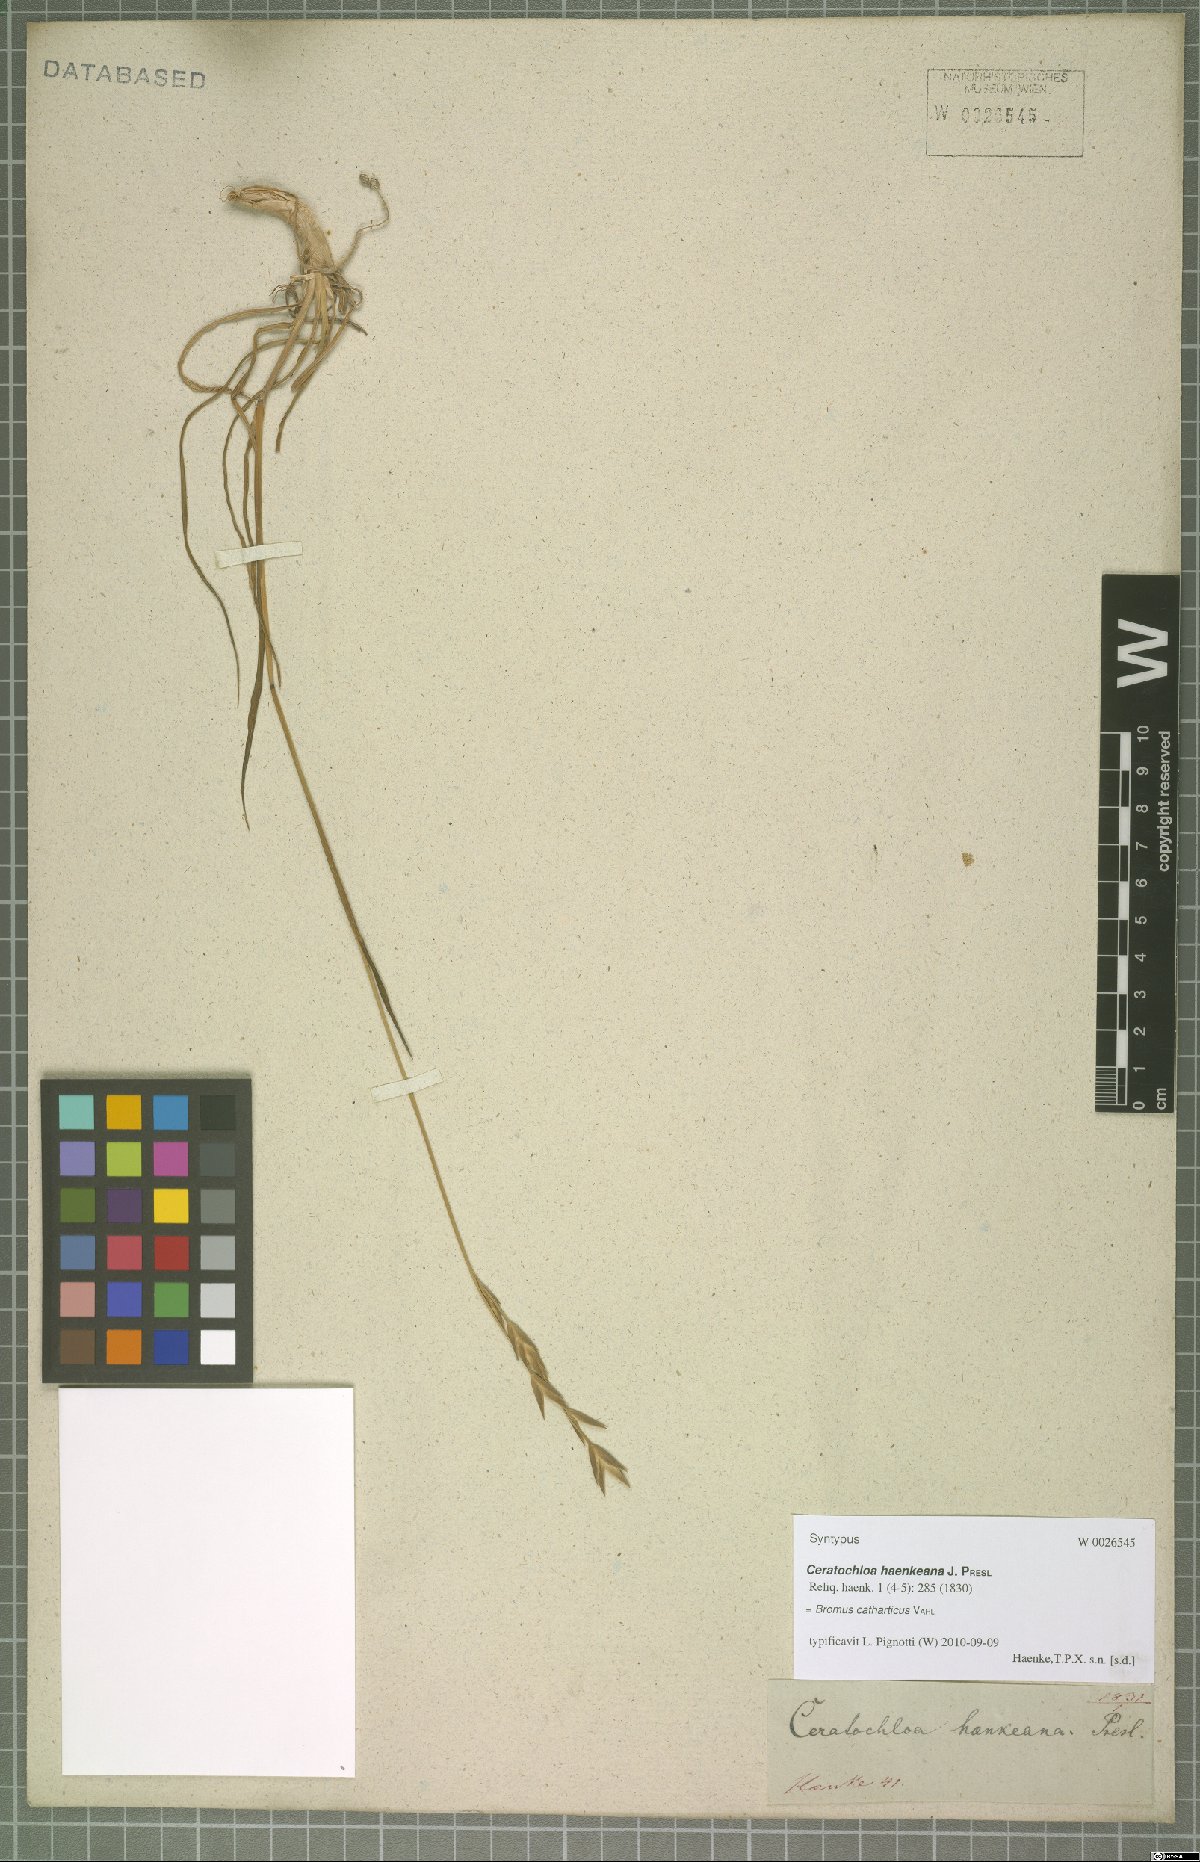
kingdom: Plantae
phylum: Tracheophyta
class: Liliopsida
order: Poales
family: Poaceae
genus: Bromus
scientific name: Bromus catharticus
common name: Rescuegrass
